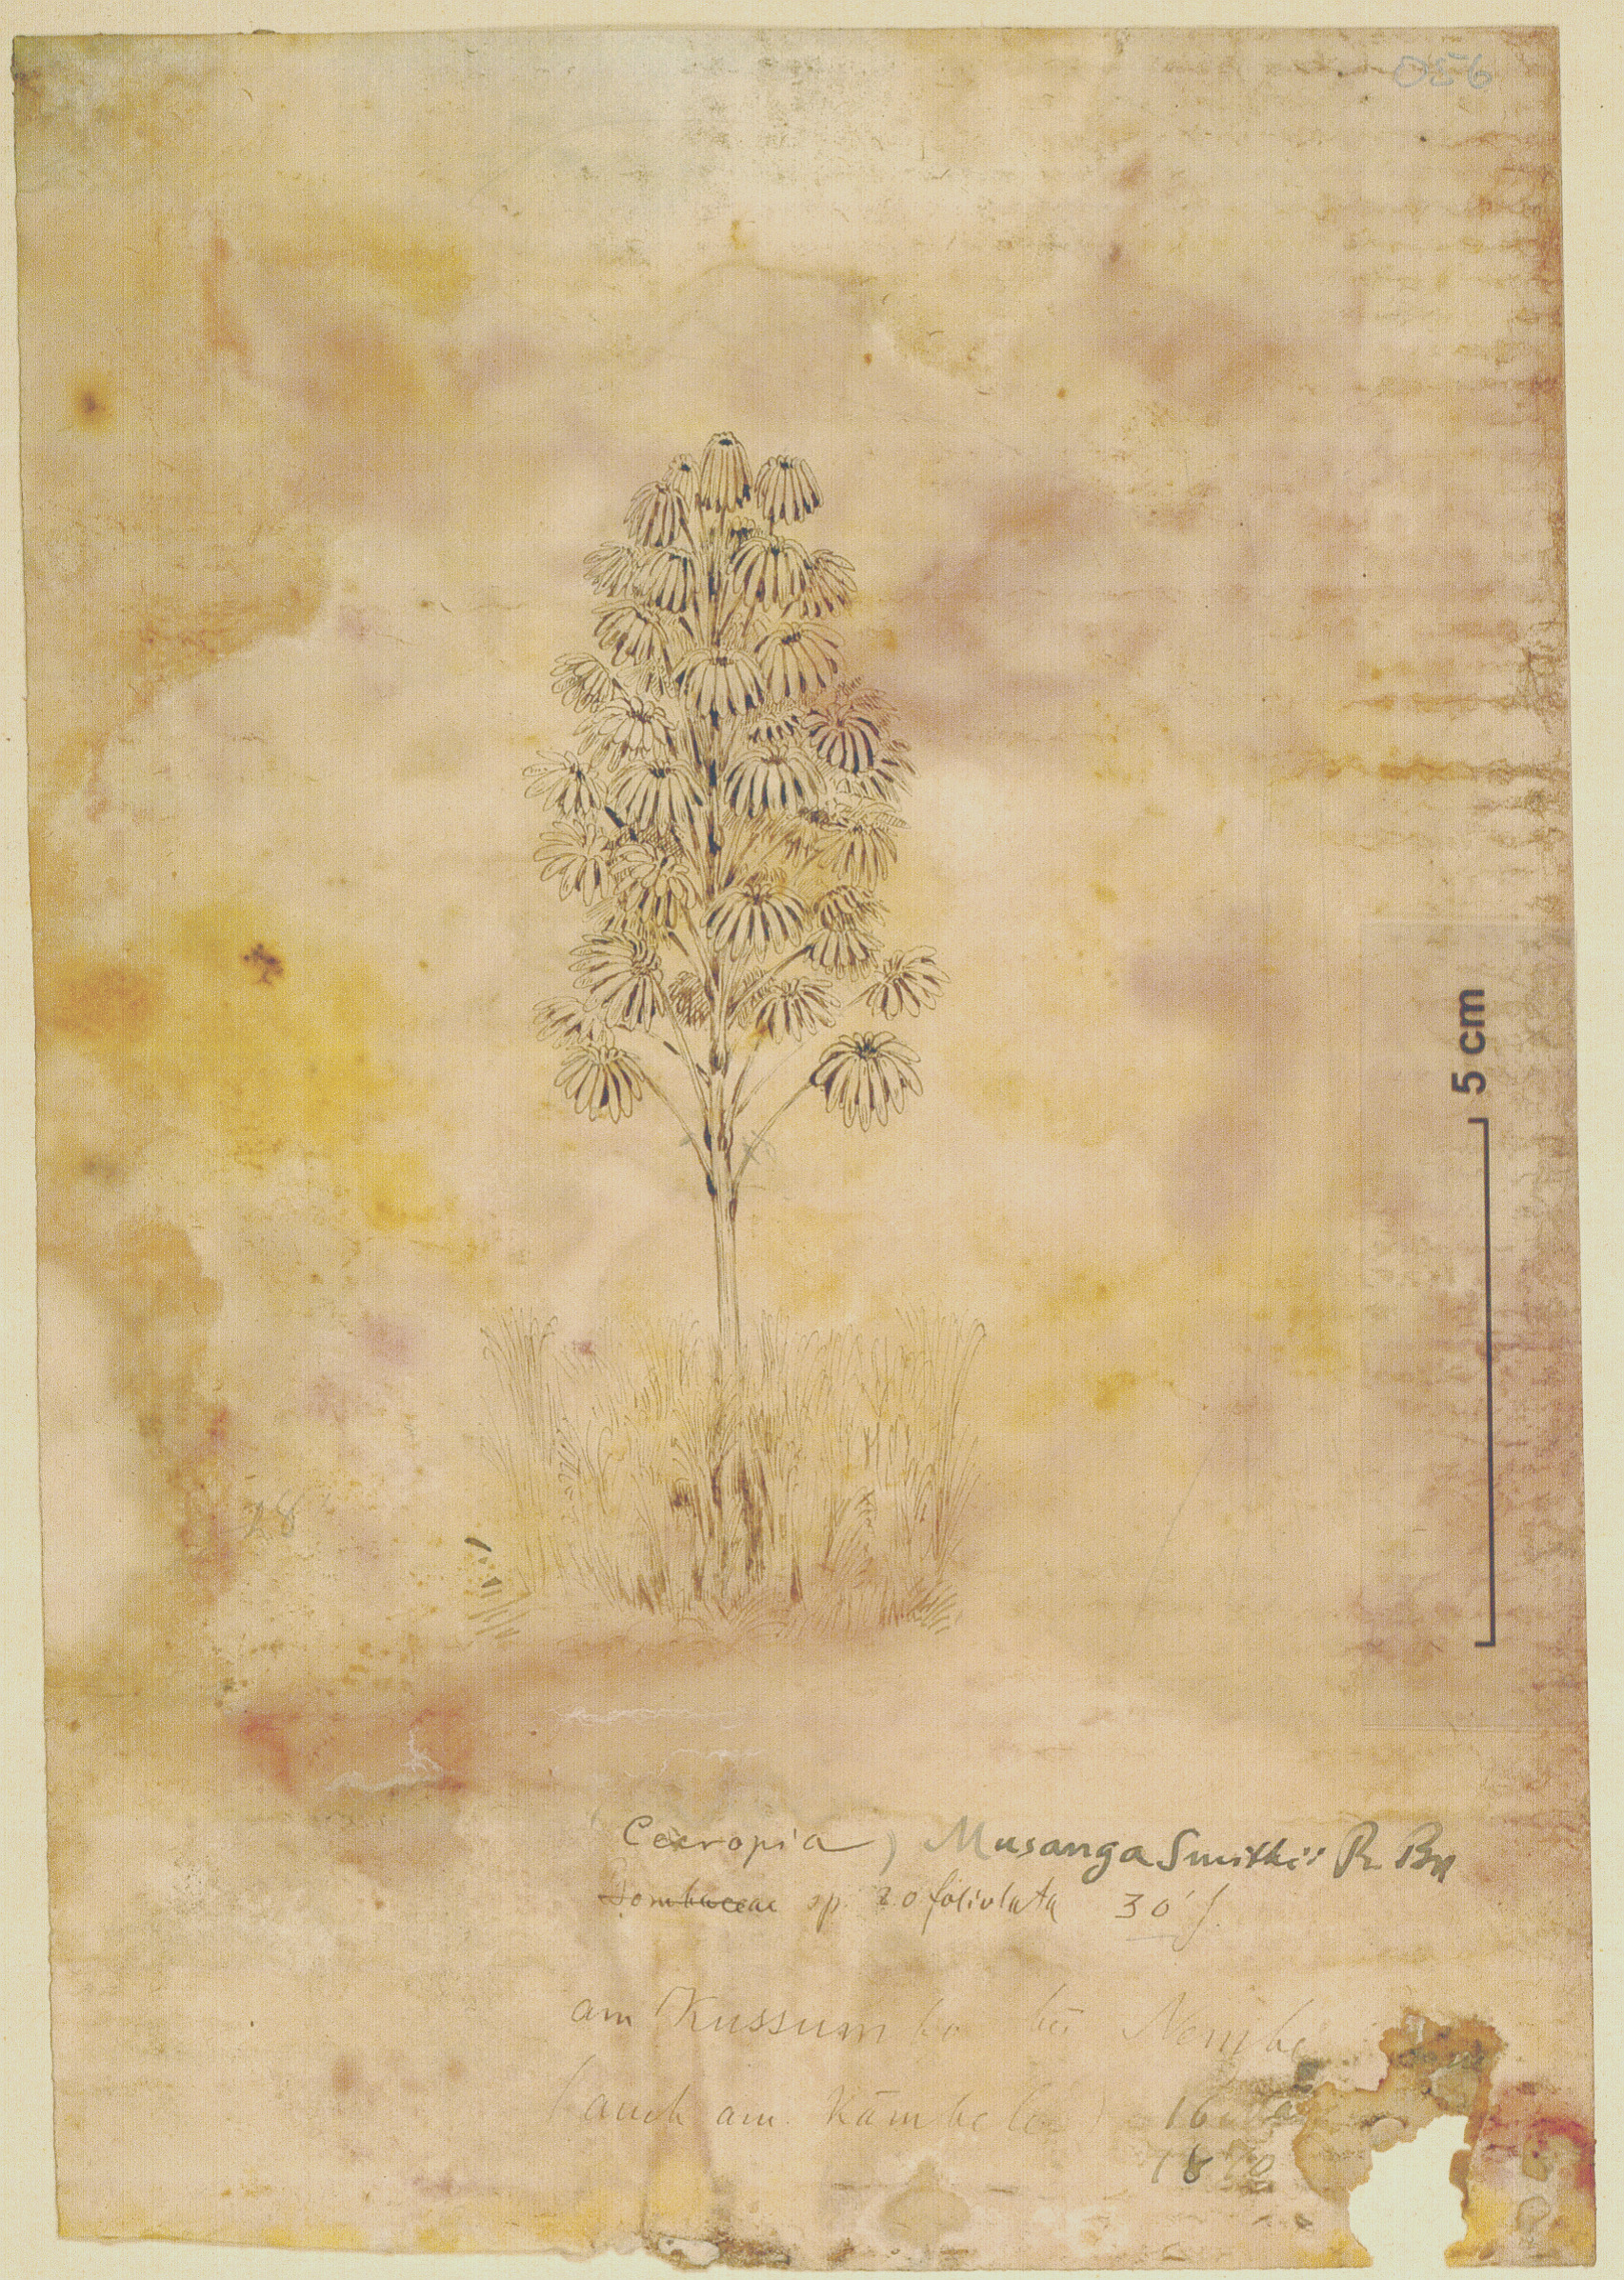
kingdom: Plantae
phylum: Tracheophyta
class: Magnoliopsida
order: Rosales
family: Urticaceae
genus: Musanga
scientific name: Musanga cecropioides
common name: African corkwood
